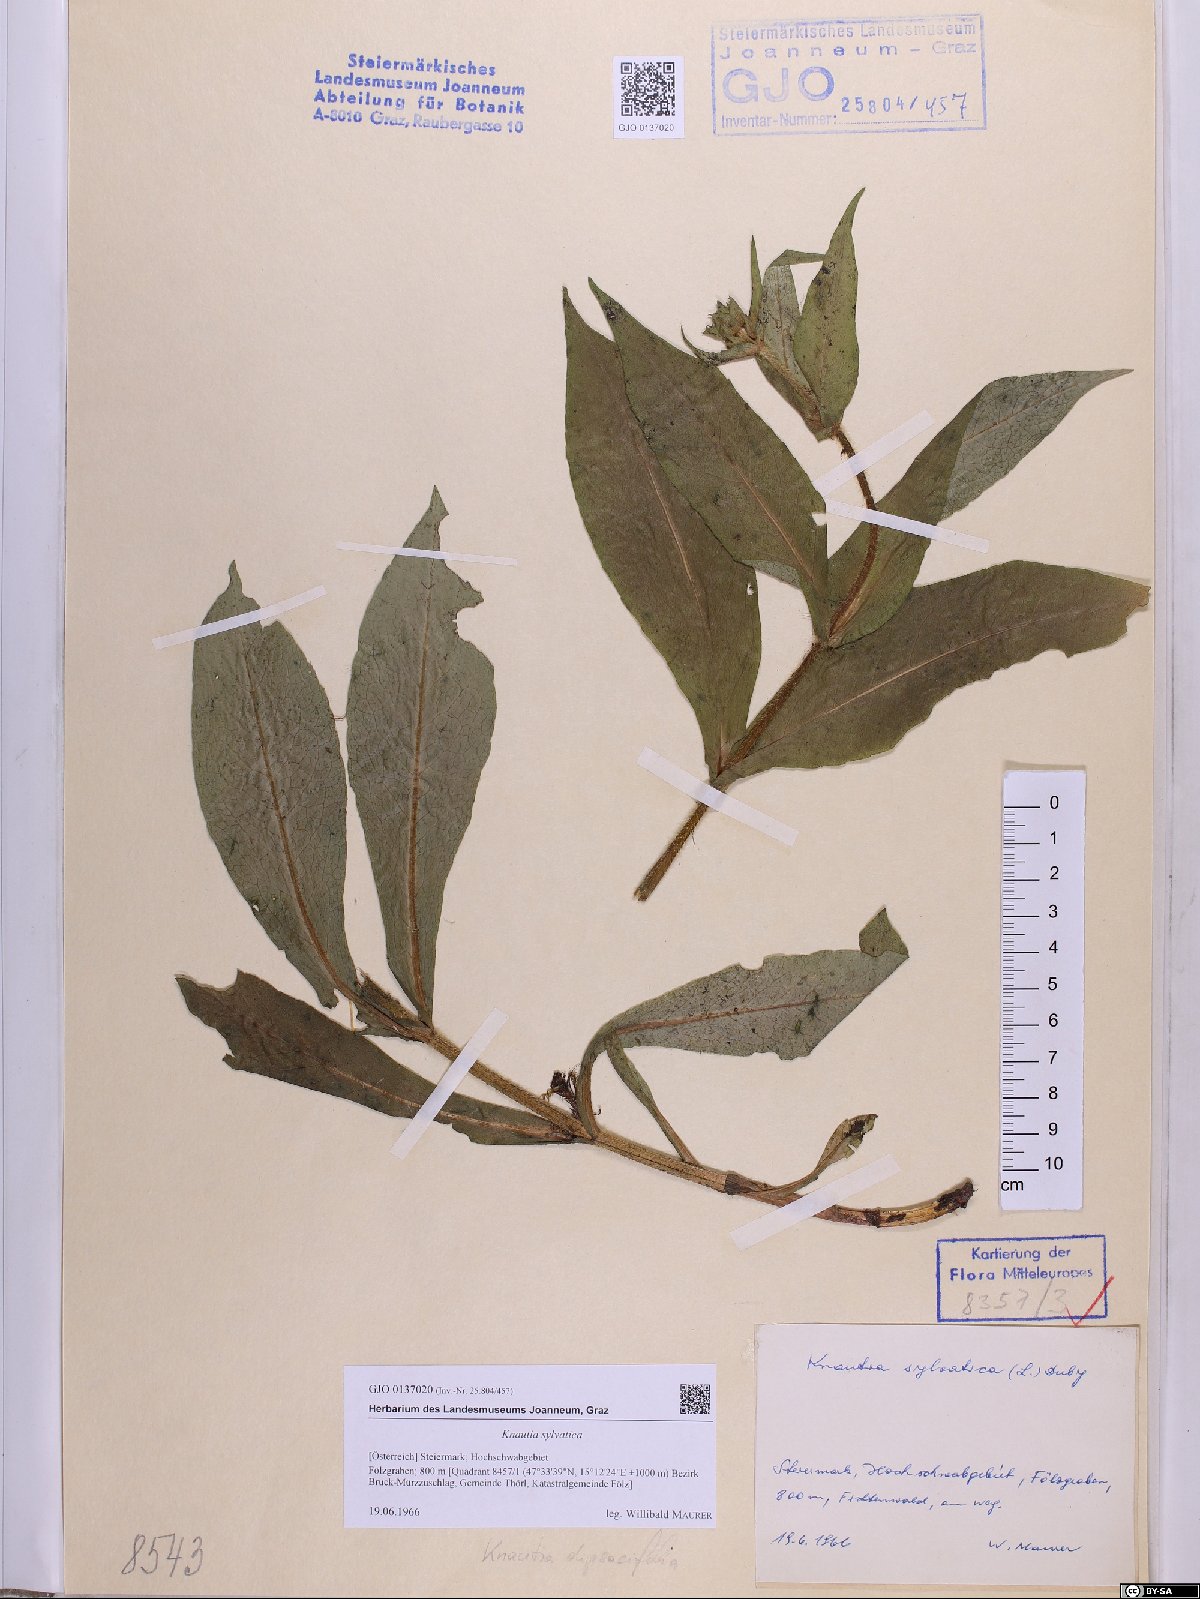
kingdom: Plantae
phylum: Tracheophyta
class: Magnoliopsida
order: Dipsacales
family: Caprifoliaceae
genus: Knautia
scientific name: Knautia drymeia
